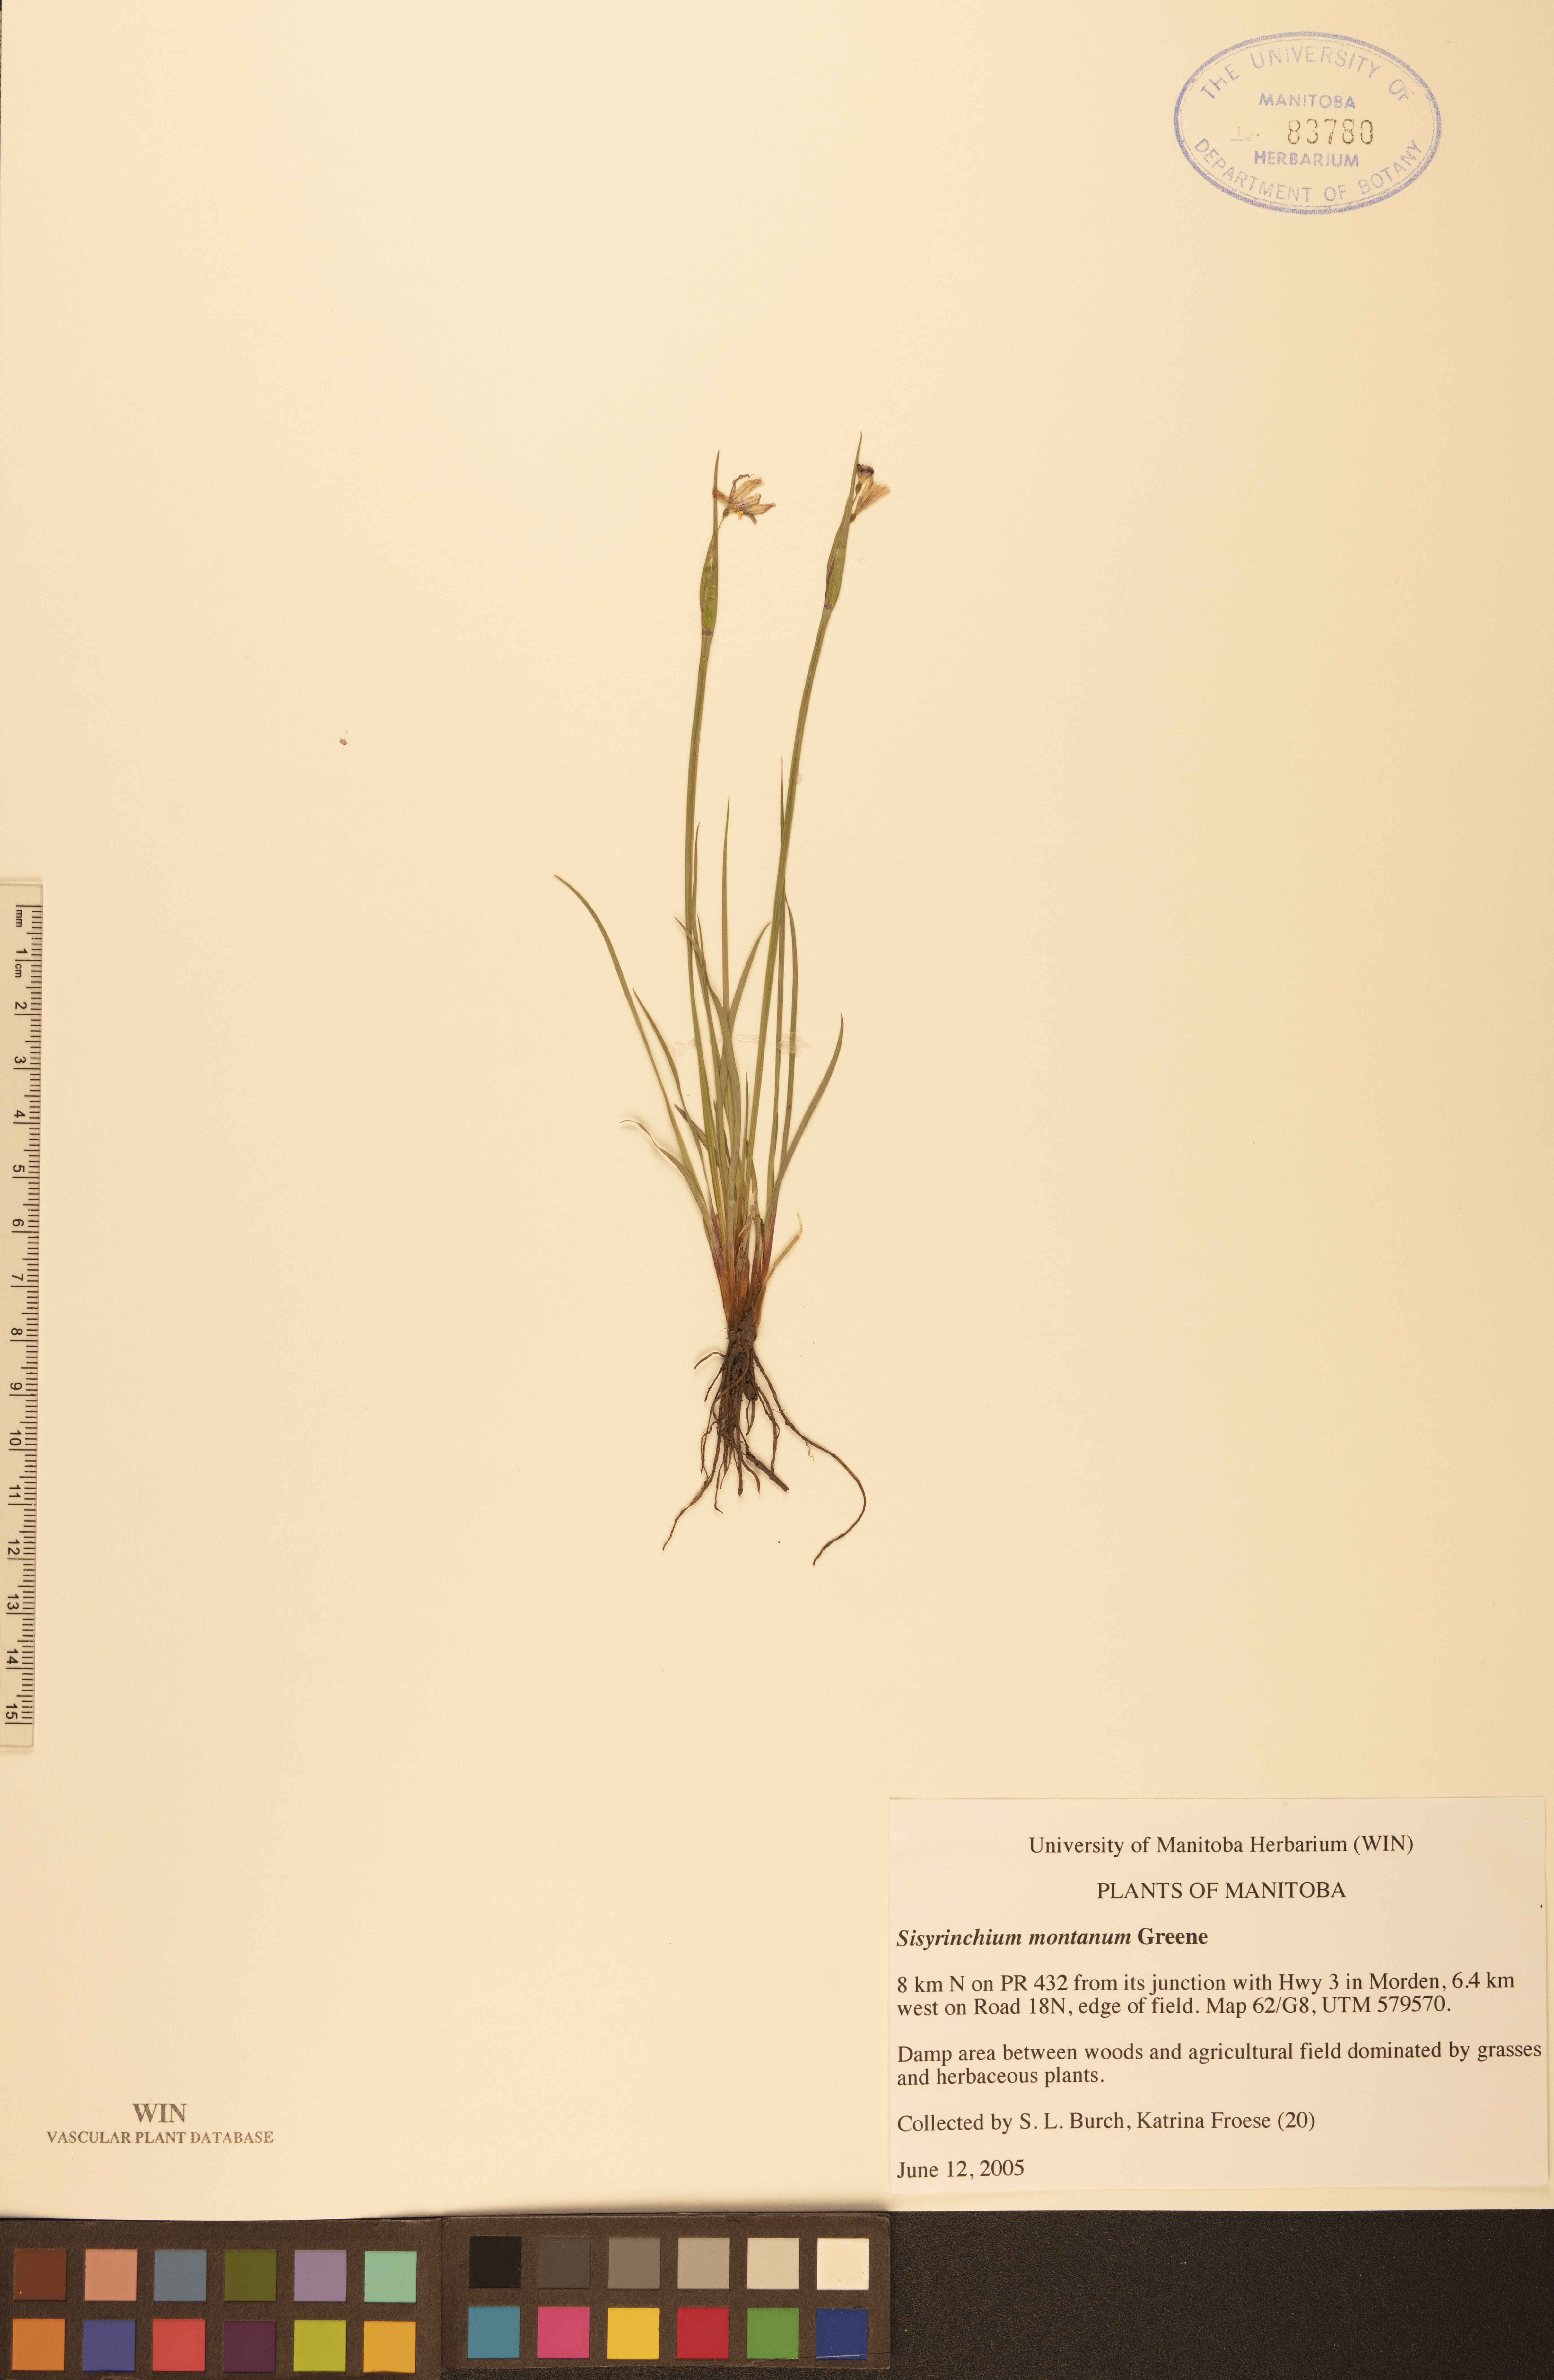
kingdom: Plantae
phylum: Tracheophyta
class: Liliopsida
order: Asparagales
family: Iridaceae
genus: Sisyrinchium
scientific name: Sisyrinchium montanum
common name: American blue-eyed-grass
